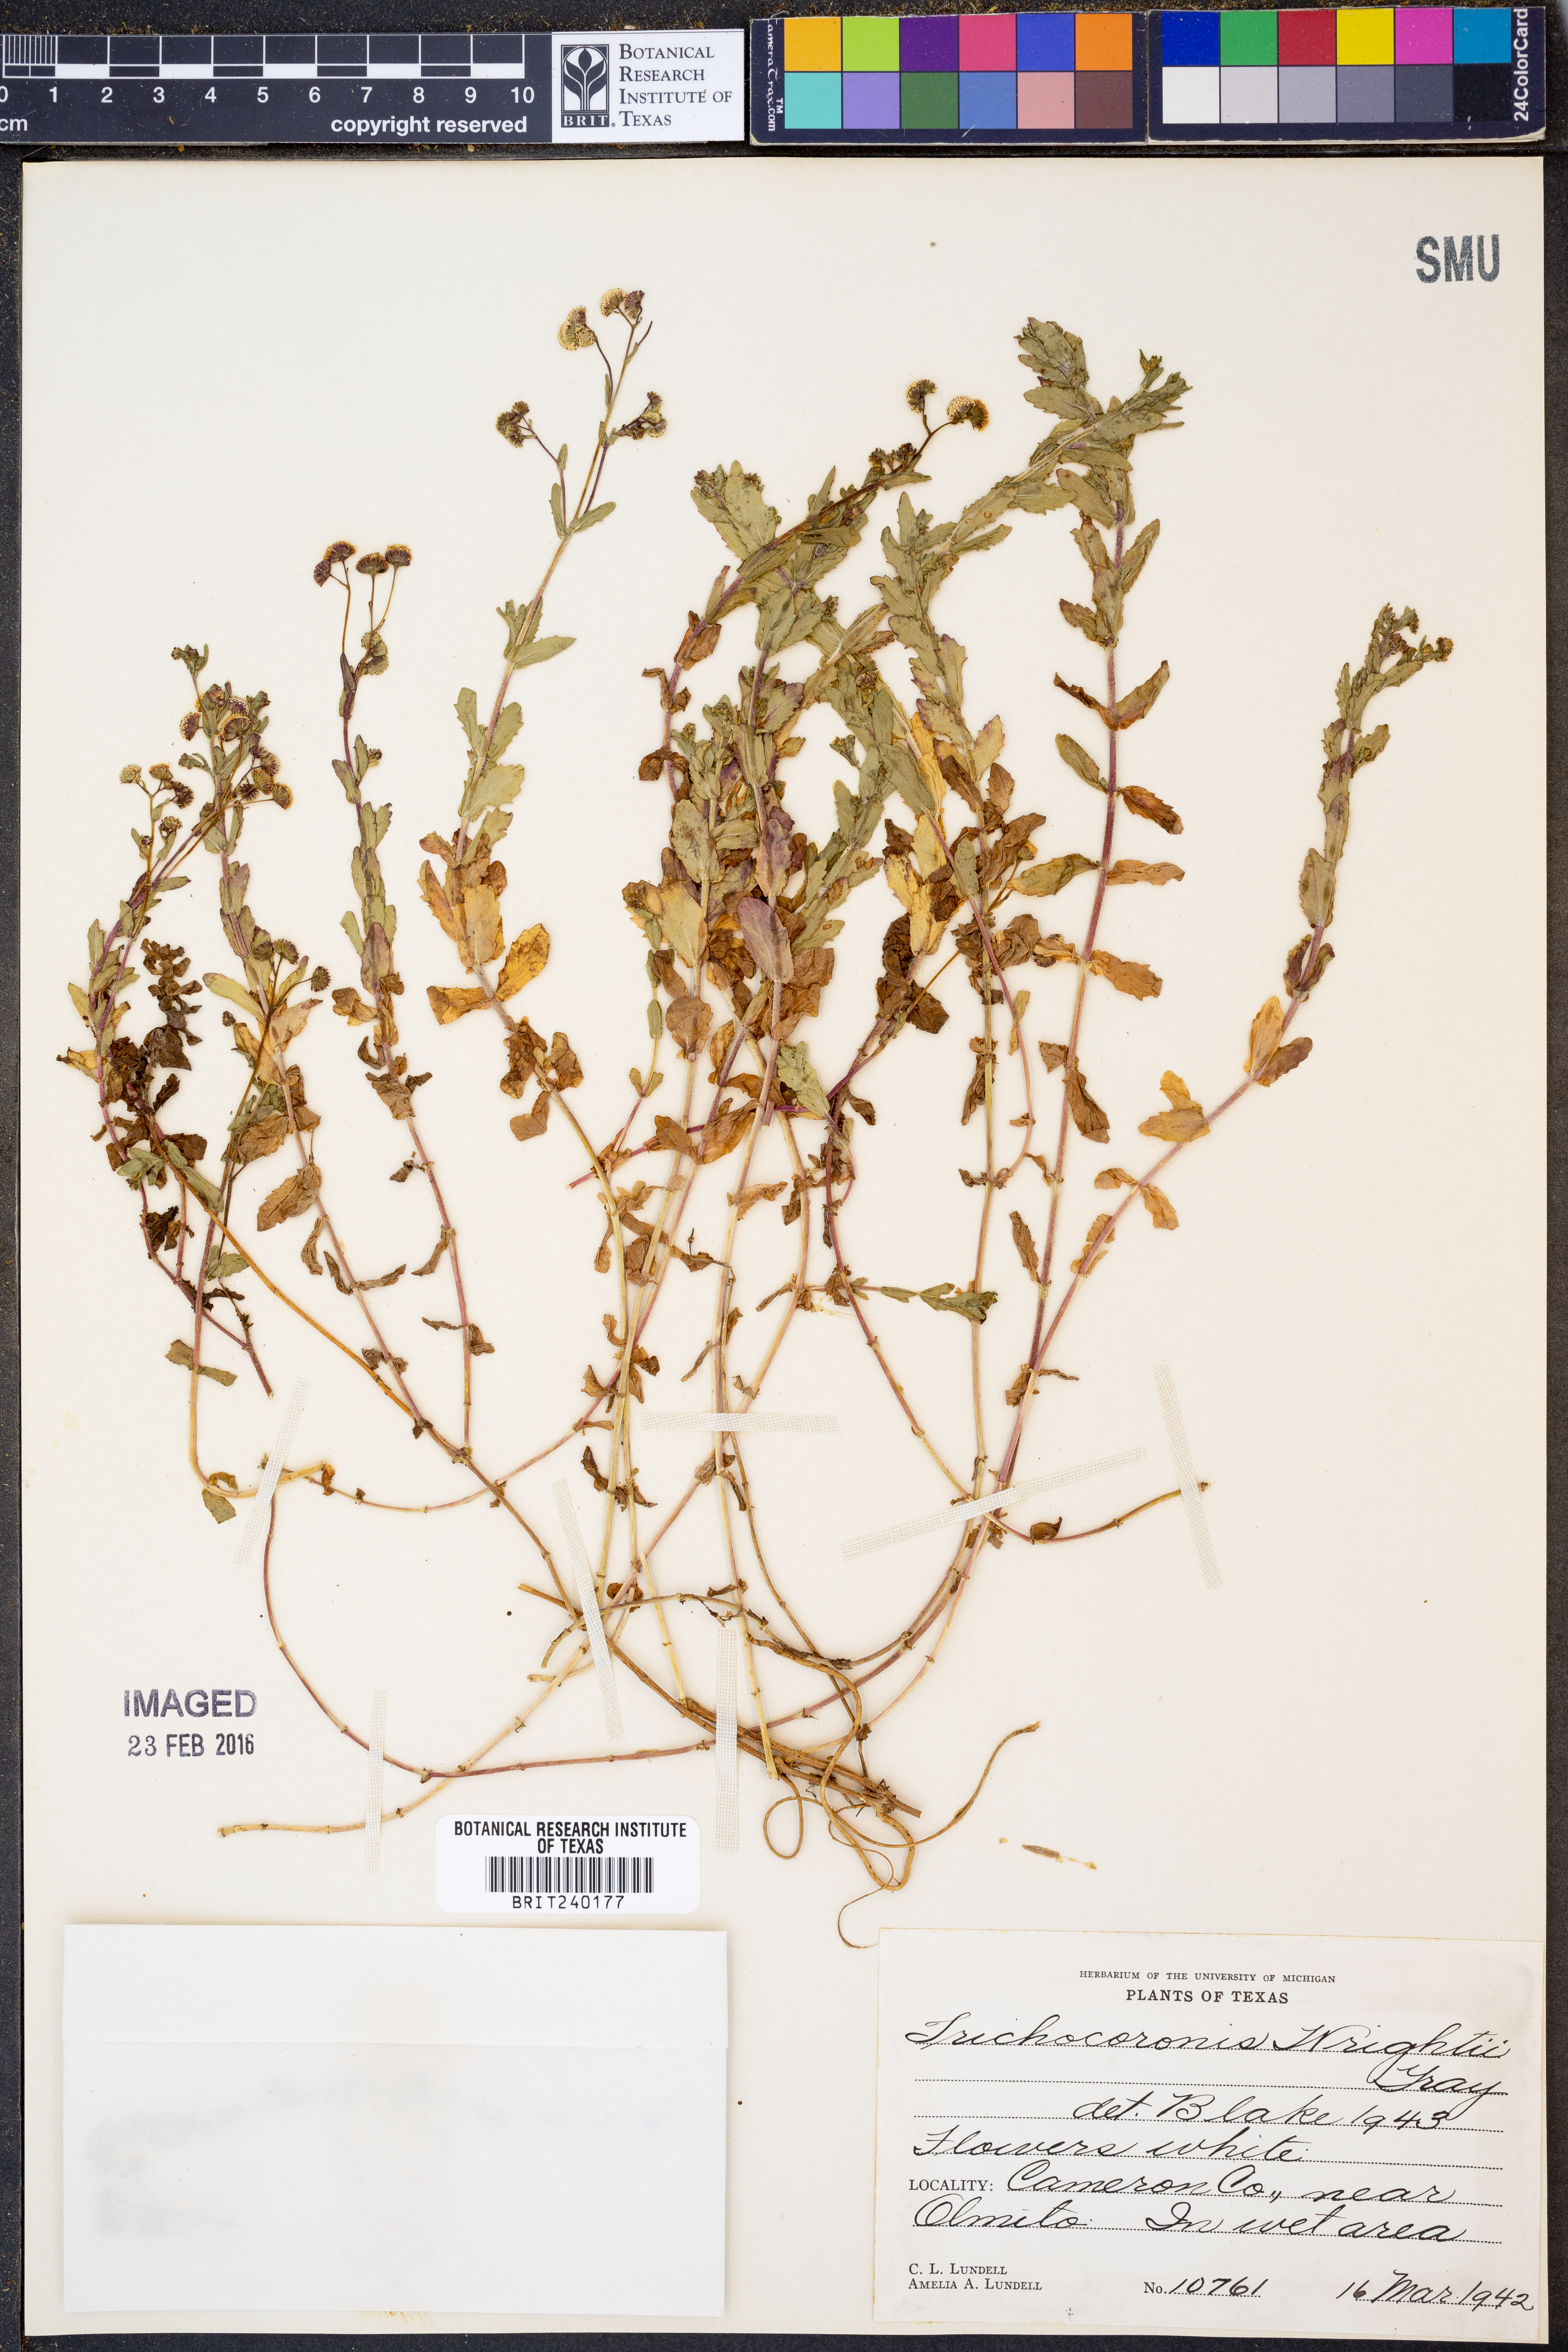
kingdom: Plantae
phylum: Tracheophyta
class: Magnoliopsida
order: Asterales
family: Asteraceae
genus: Trichocoronis
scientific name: Trichocoronis wrightii
